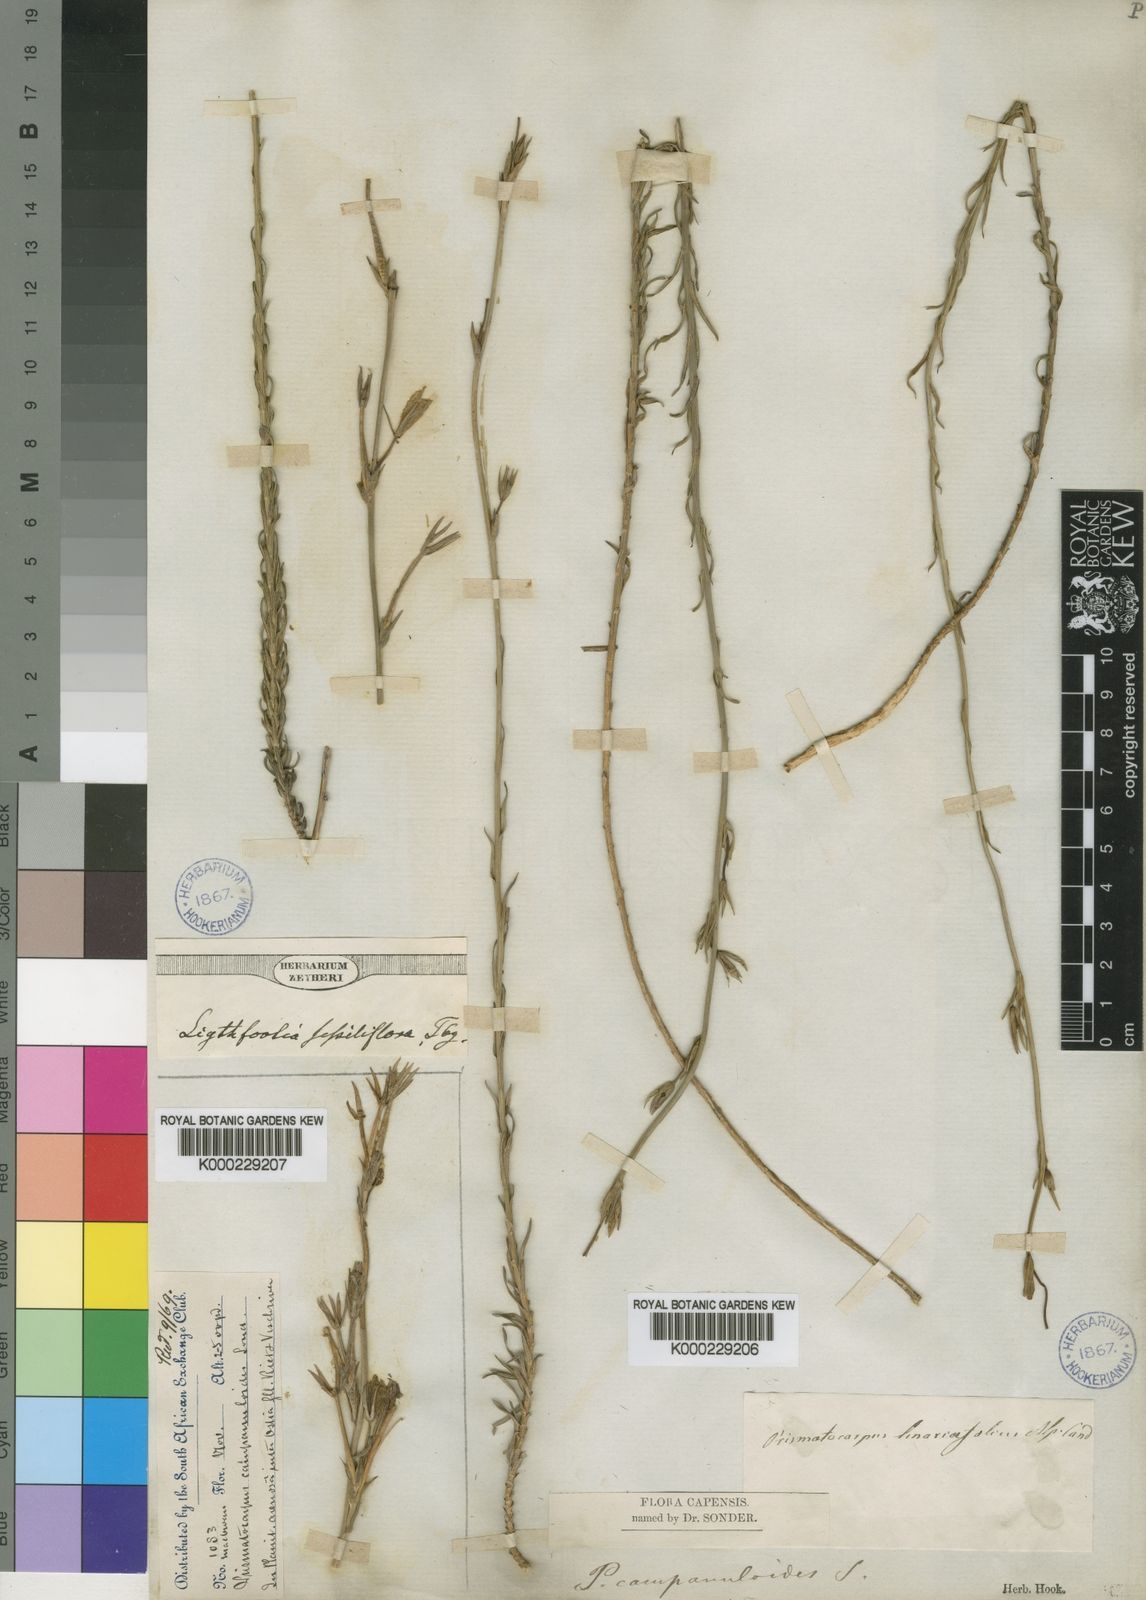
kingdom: Plantae
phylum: Tracheophyta
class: Magnoliopsida
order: Asterales
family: Campanulaceae
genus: Prismatocarpus
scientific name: Prismatocarpus campanuloides
